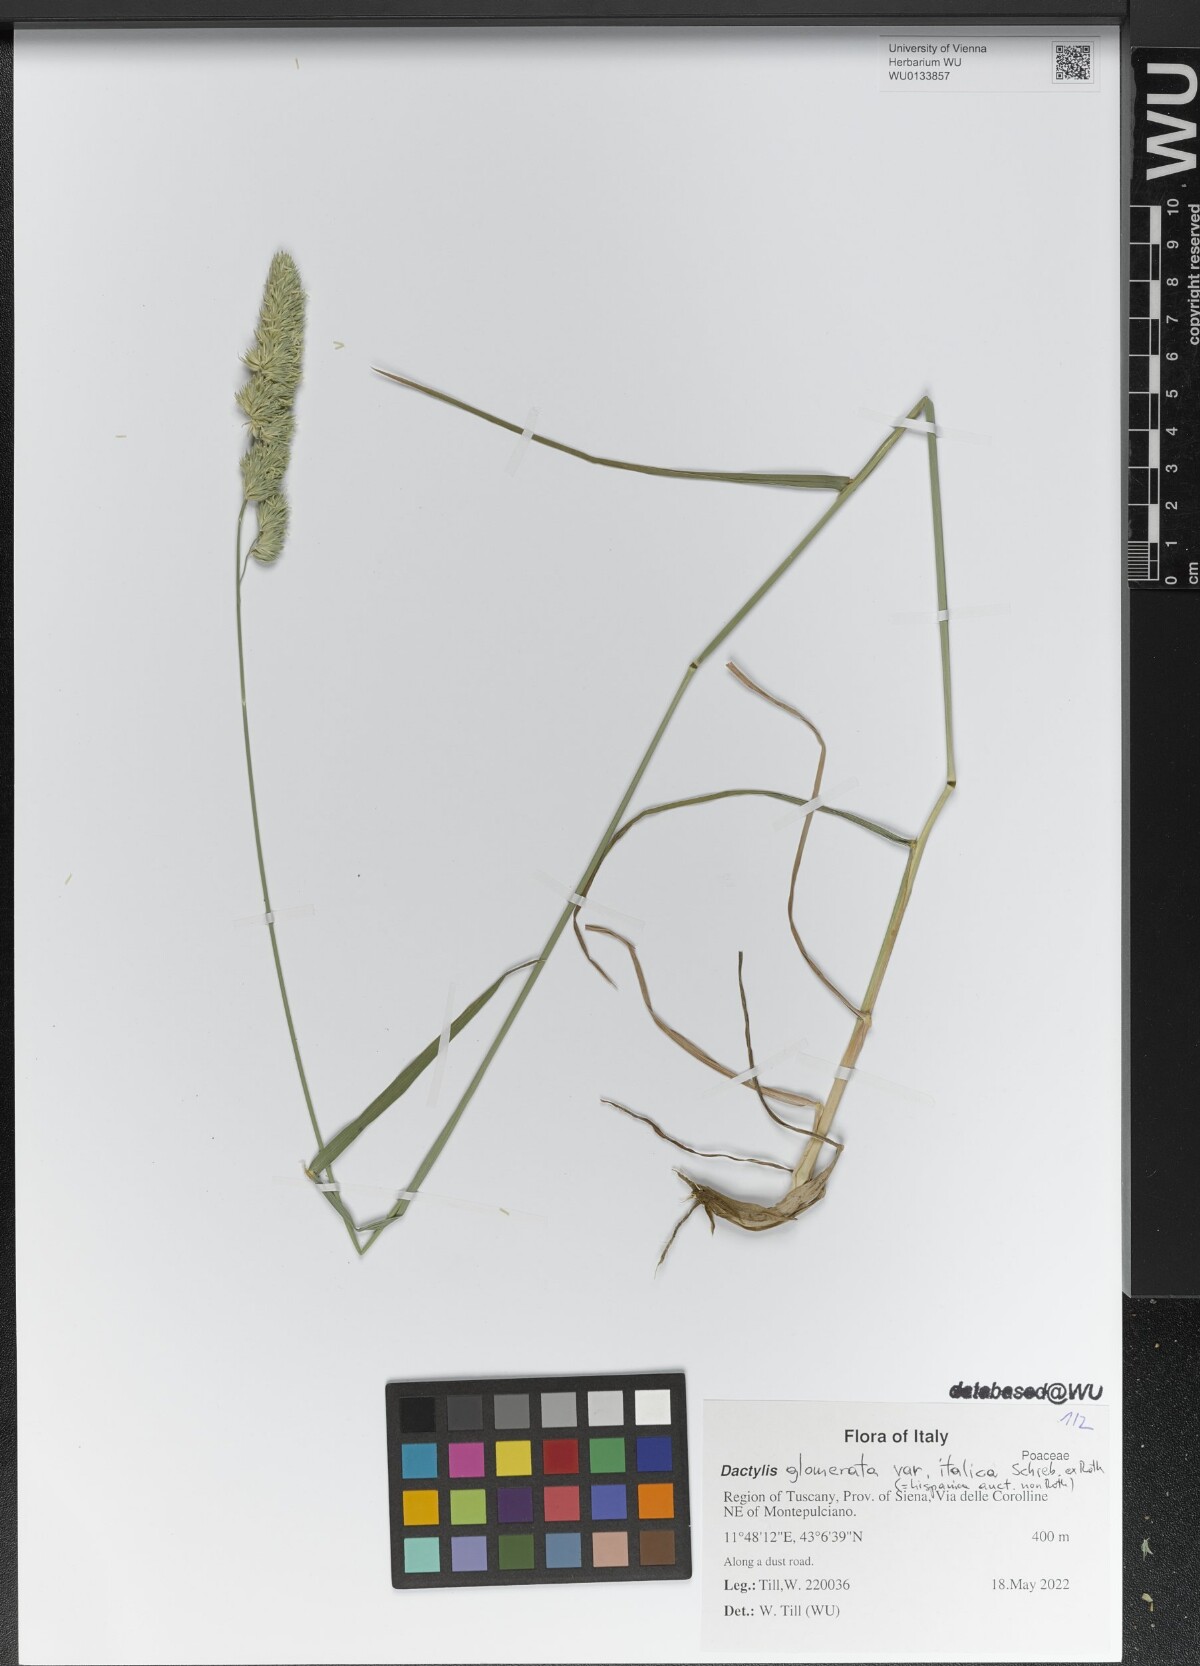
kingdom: Plantae
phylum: Tracheophyta
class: Liliopsida
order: Poales
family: Poaceae
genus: Dactylis
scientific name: Dactylis glomerata
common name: Orchardgrass
